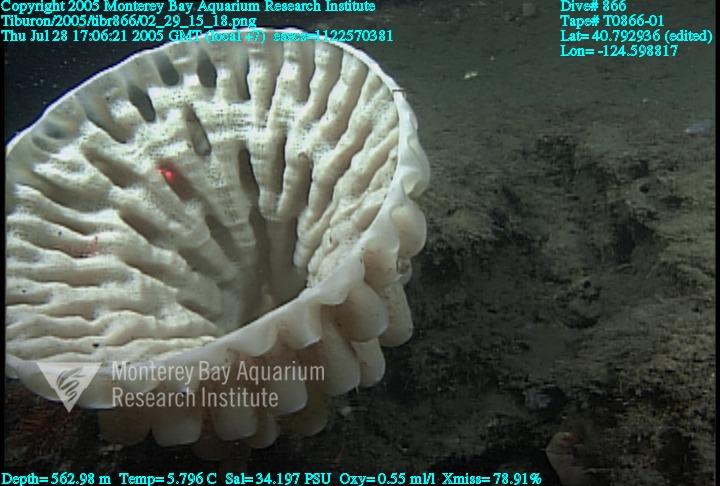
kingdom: Animalia
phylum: Porifera
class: Hexactinellida
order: Sceptrulophora
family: Aphrocallistidae
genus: Heterochone
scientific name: Heterochone calyx
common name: Fingered goblet glass sponge
